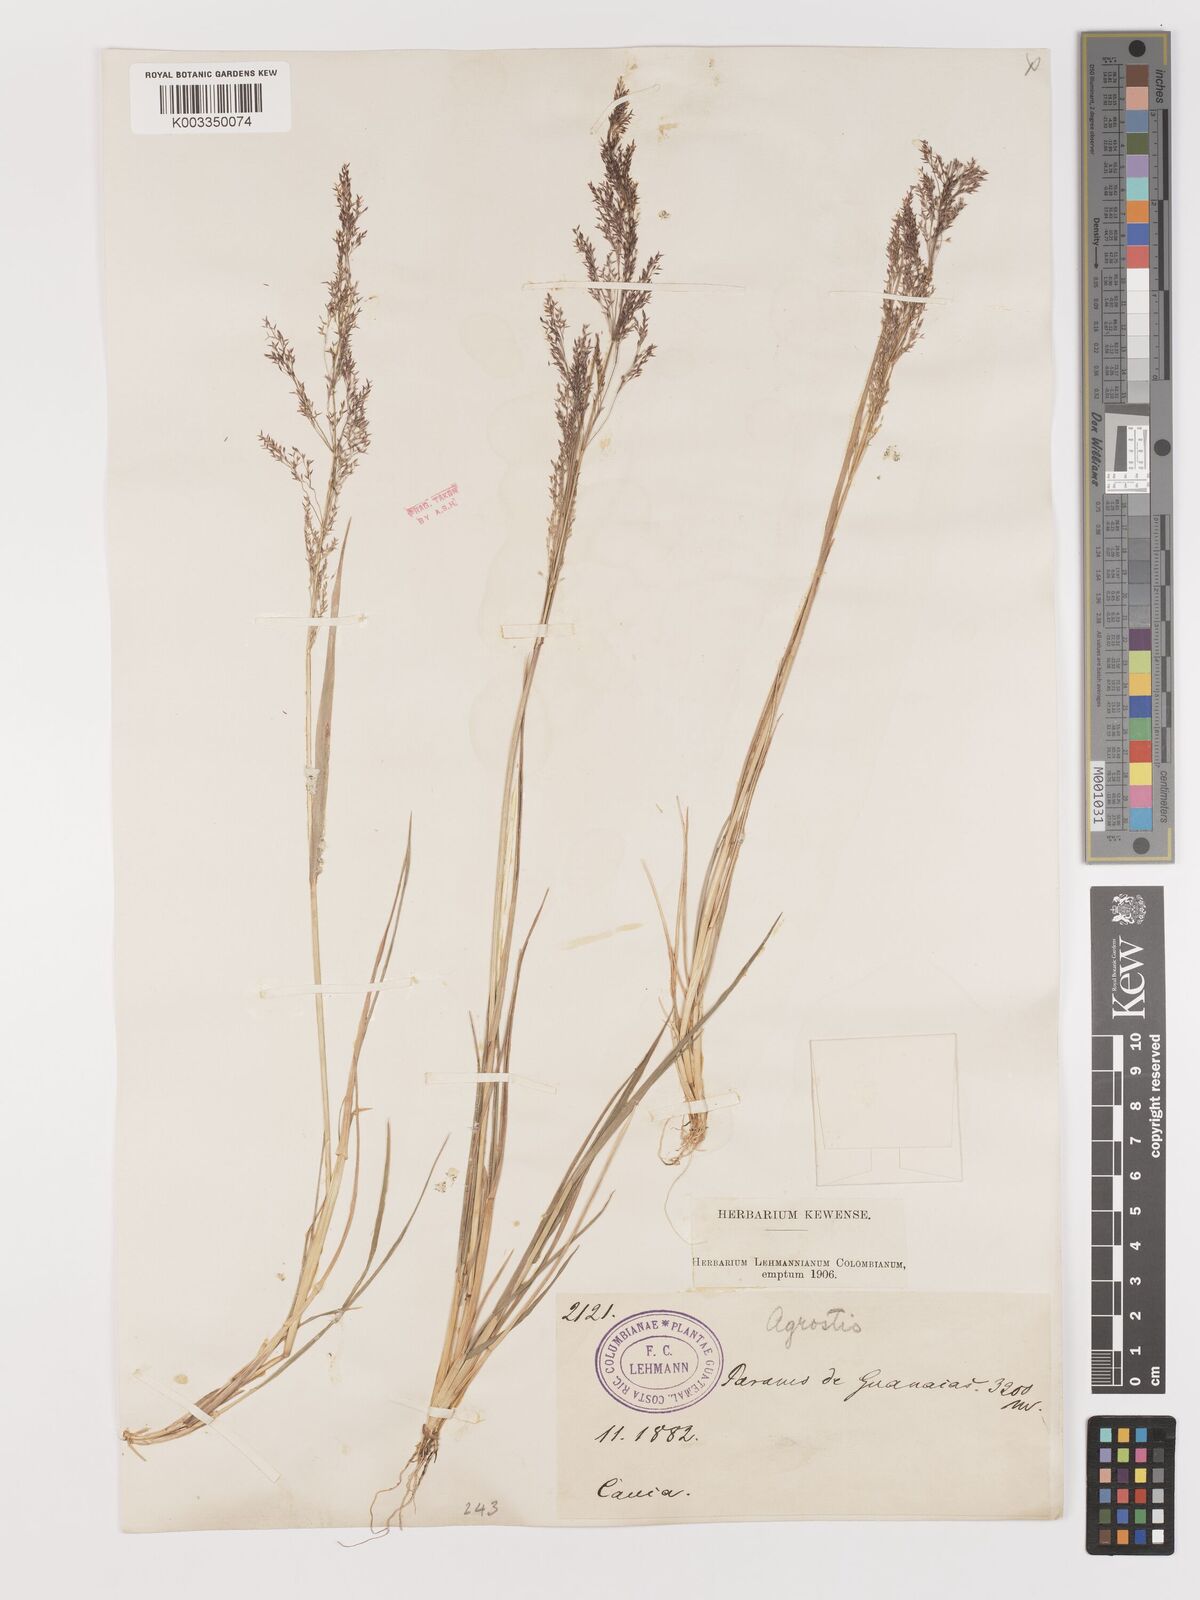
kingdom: Plantae
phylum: Tracheophyta
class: Liliopsida
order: Poales
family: Poaceae
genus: Agrostis
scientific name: Agrostis
